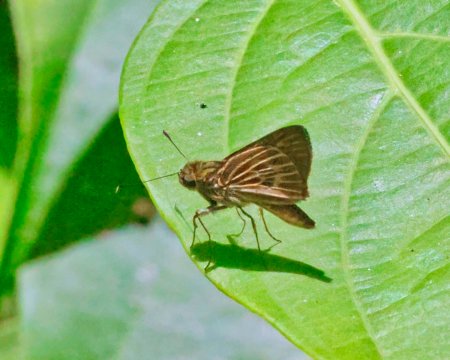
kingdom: Animalia
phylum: Arthropoda
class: Insecta
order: Lepidoptera
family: Hesperiidae
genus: Parphorus
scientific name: Parphorus decora
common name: Decora Skipper
